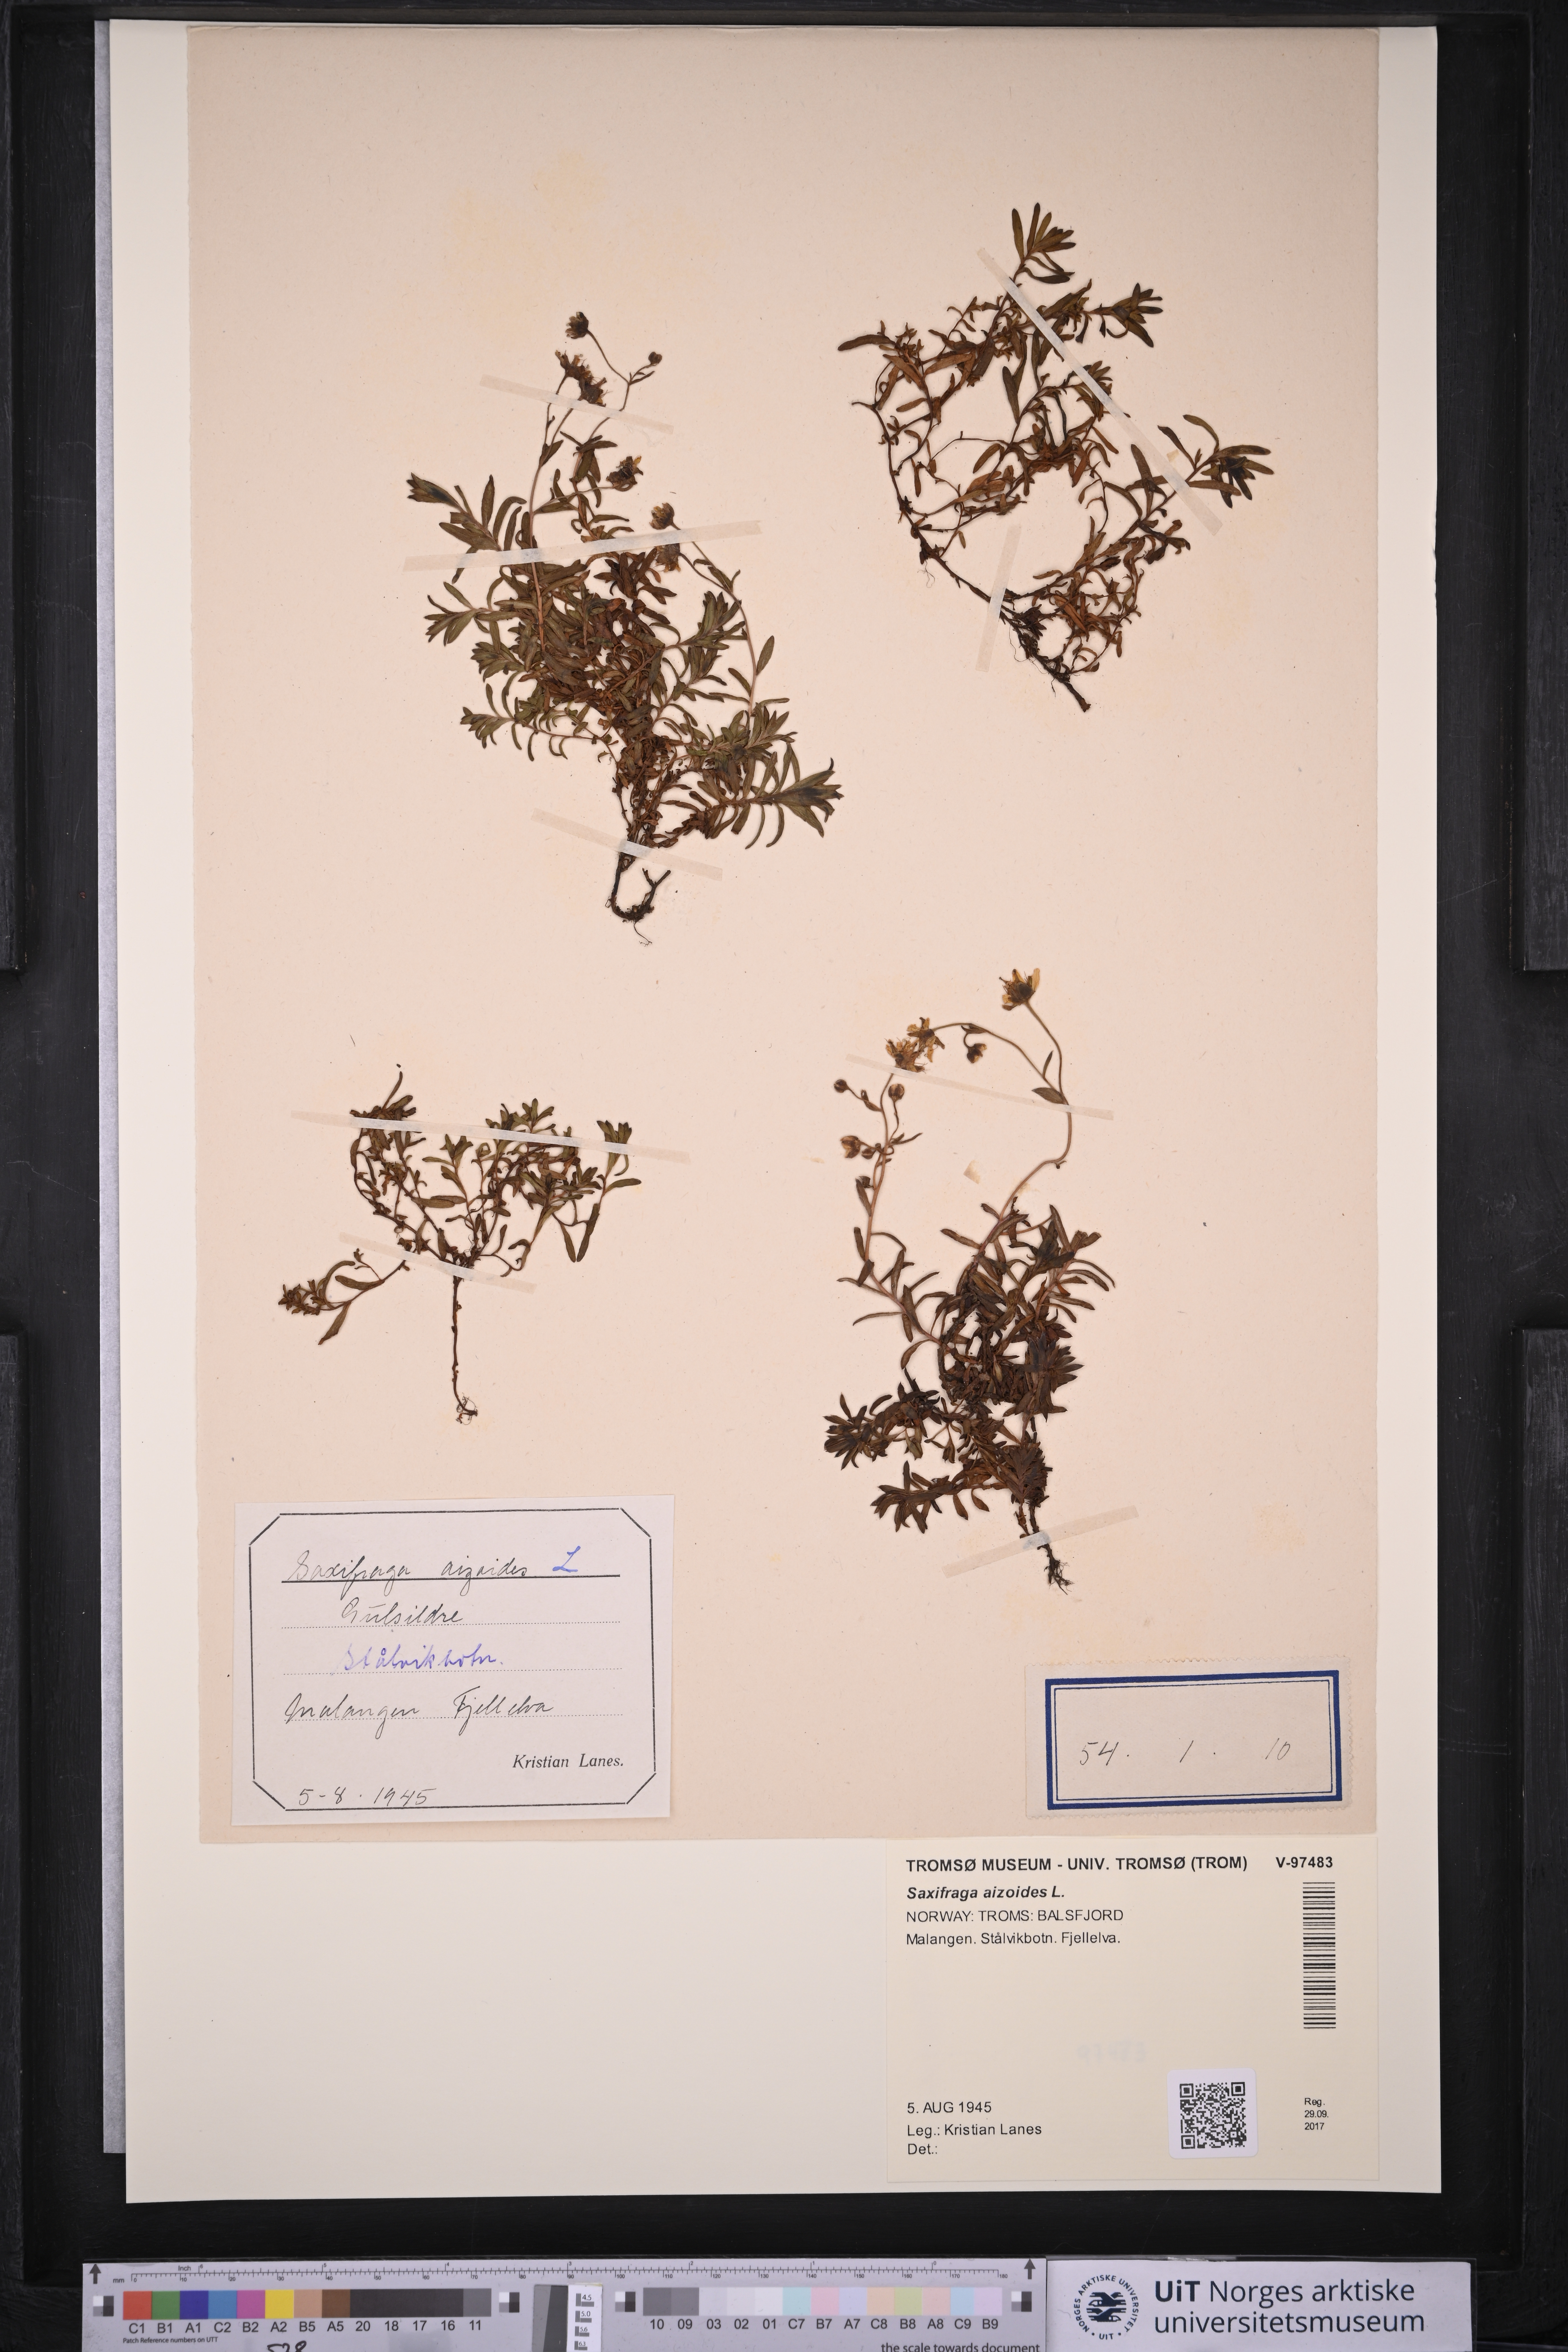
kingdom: Plantae
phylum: Tracheophyta
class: Magnoliopsida
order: Saxifragales
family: Saxifragaceae
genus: Saxifraga
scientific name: Saxifraga aizoides
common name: Yellow mountain saxifrage
